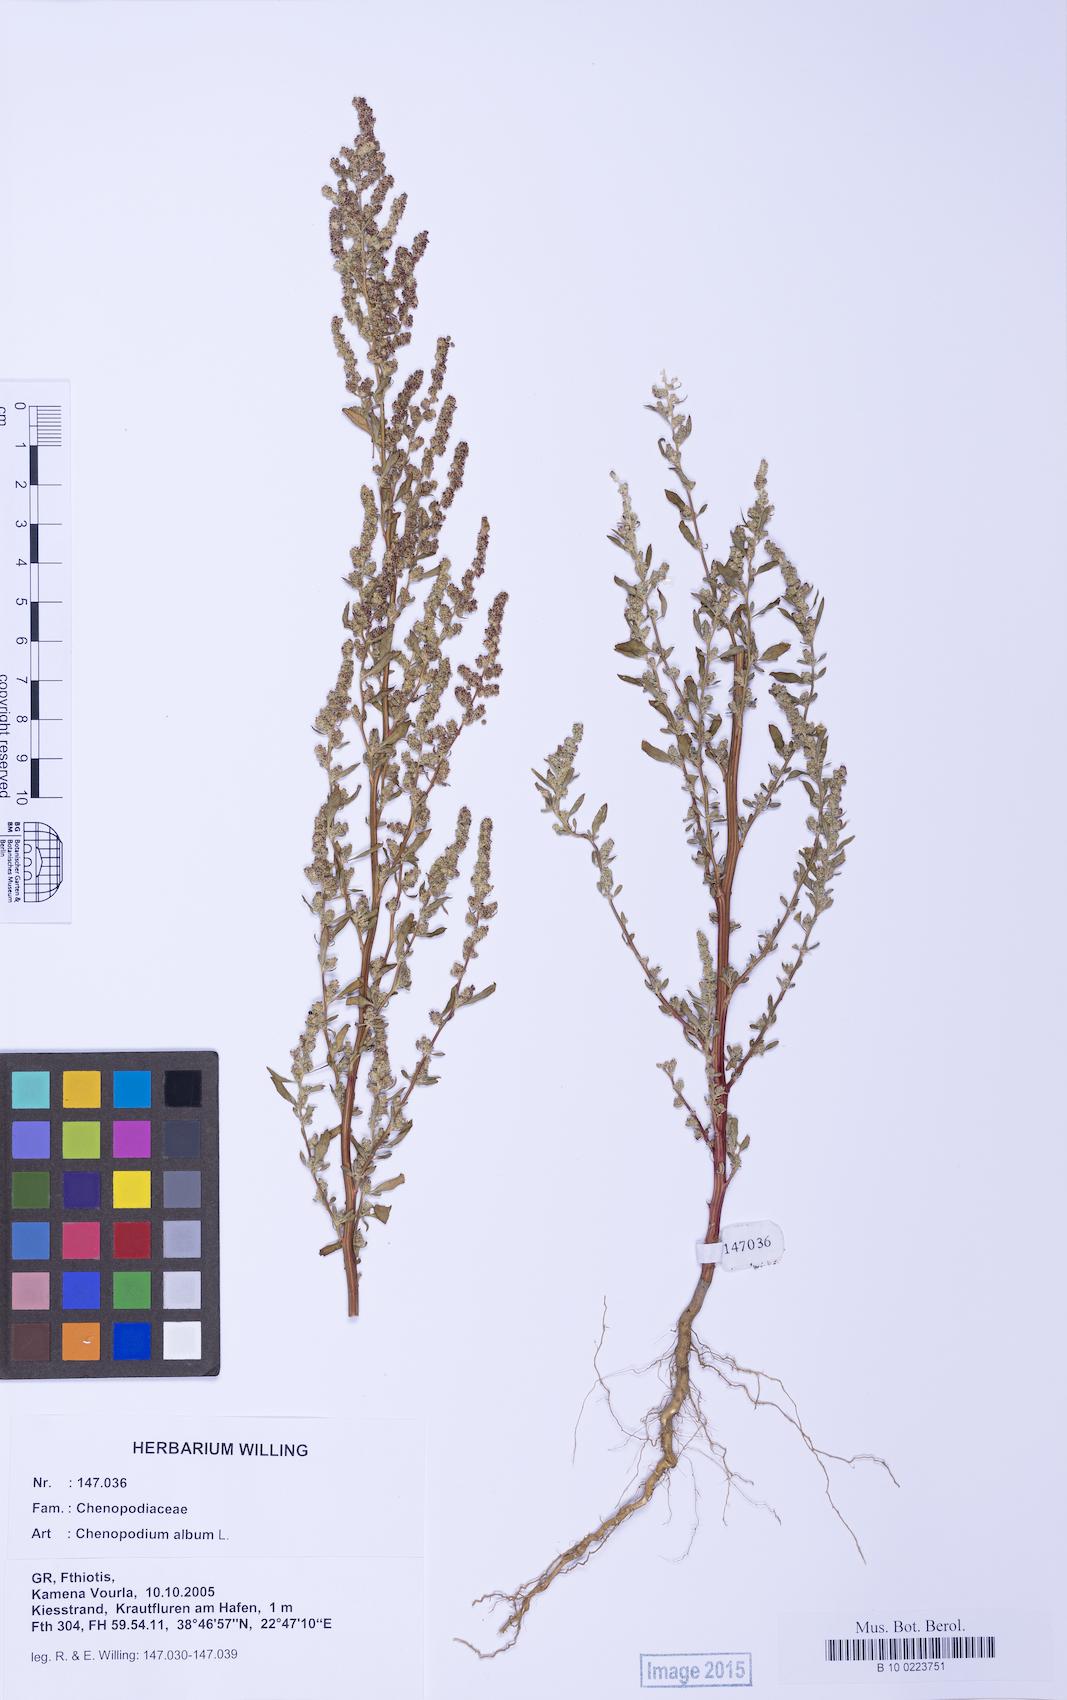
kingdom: Plantae
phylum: Tracheophyta
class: Magnoliopsida
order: Caryophyllales
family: Amaranthaceae
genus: Chenopodium
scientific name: Chenopodium album
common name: Fat-hen
